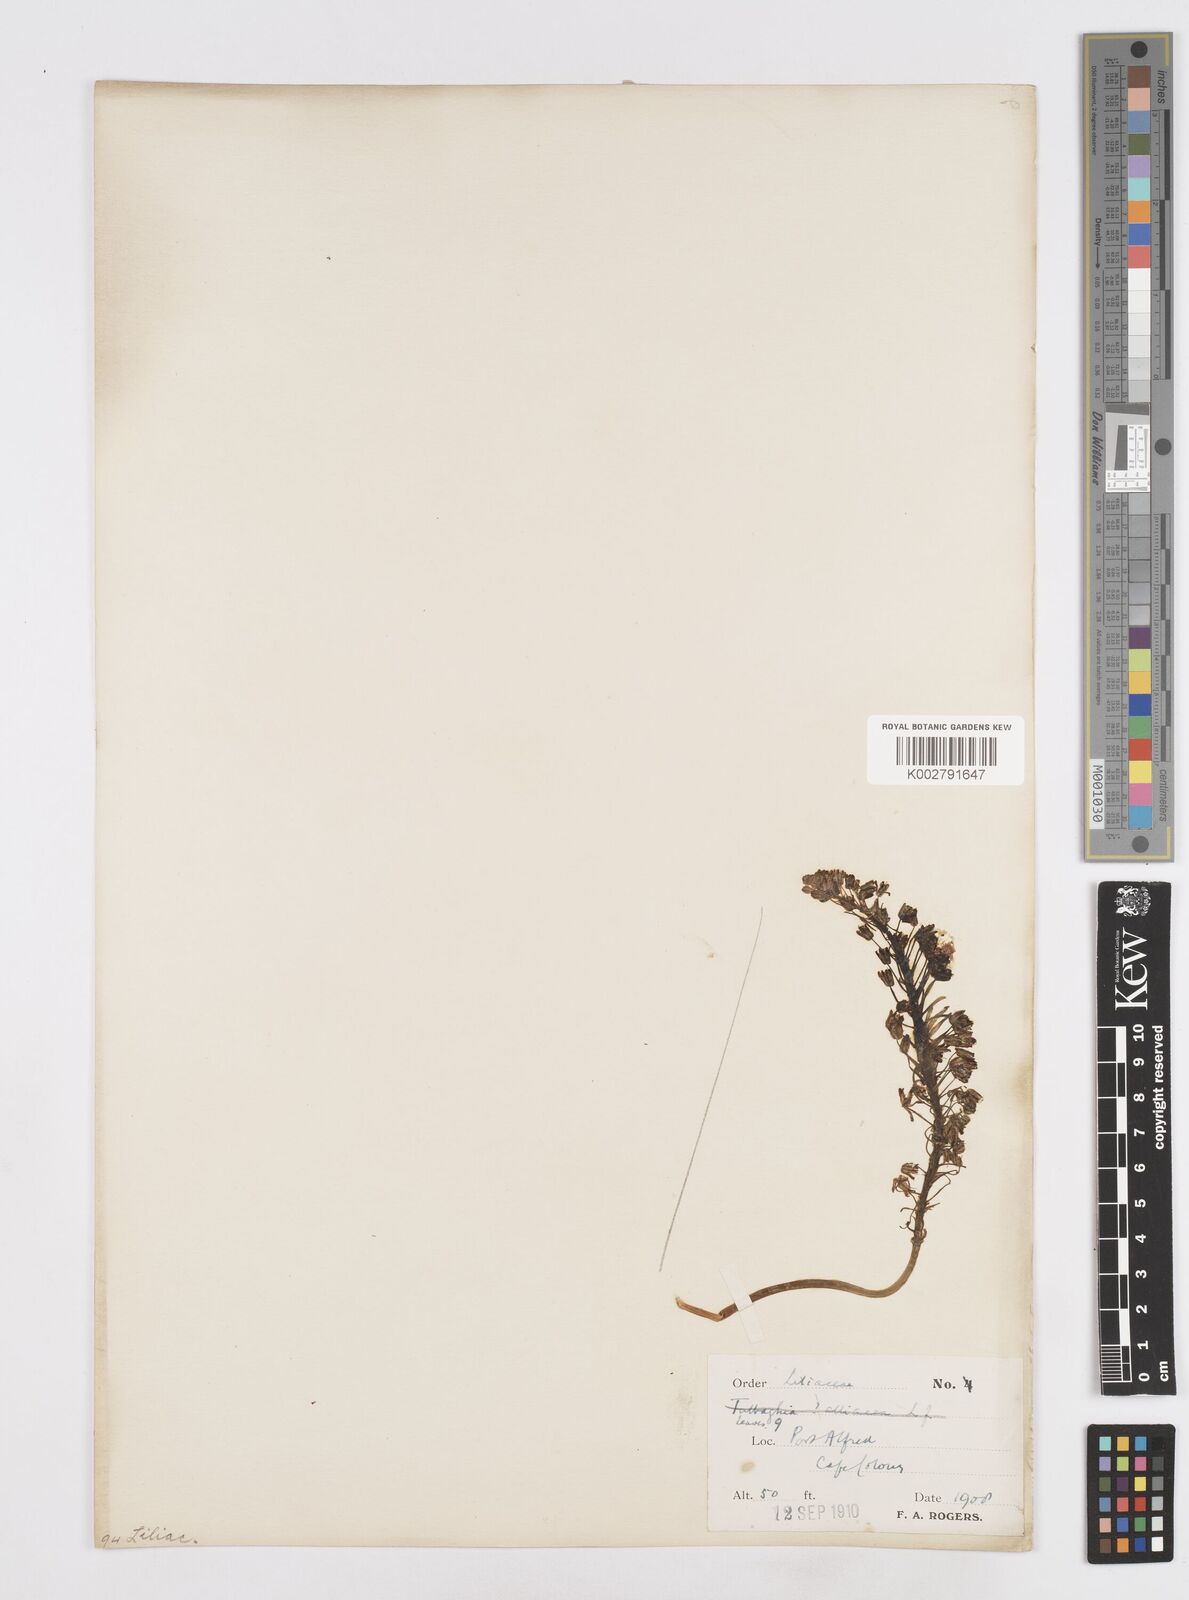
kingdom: Plantae
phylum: Tracheophyta
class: Liliopsida
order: Asparagales
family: Asparagaceae
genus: Scilla
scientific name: Scilla
